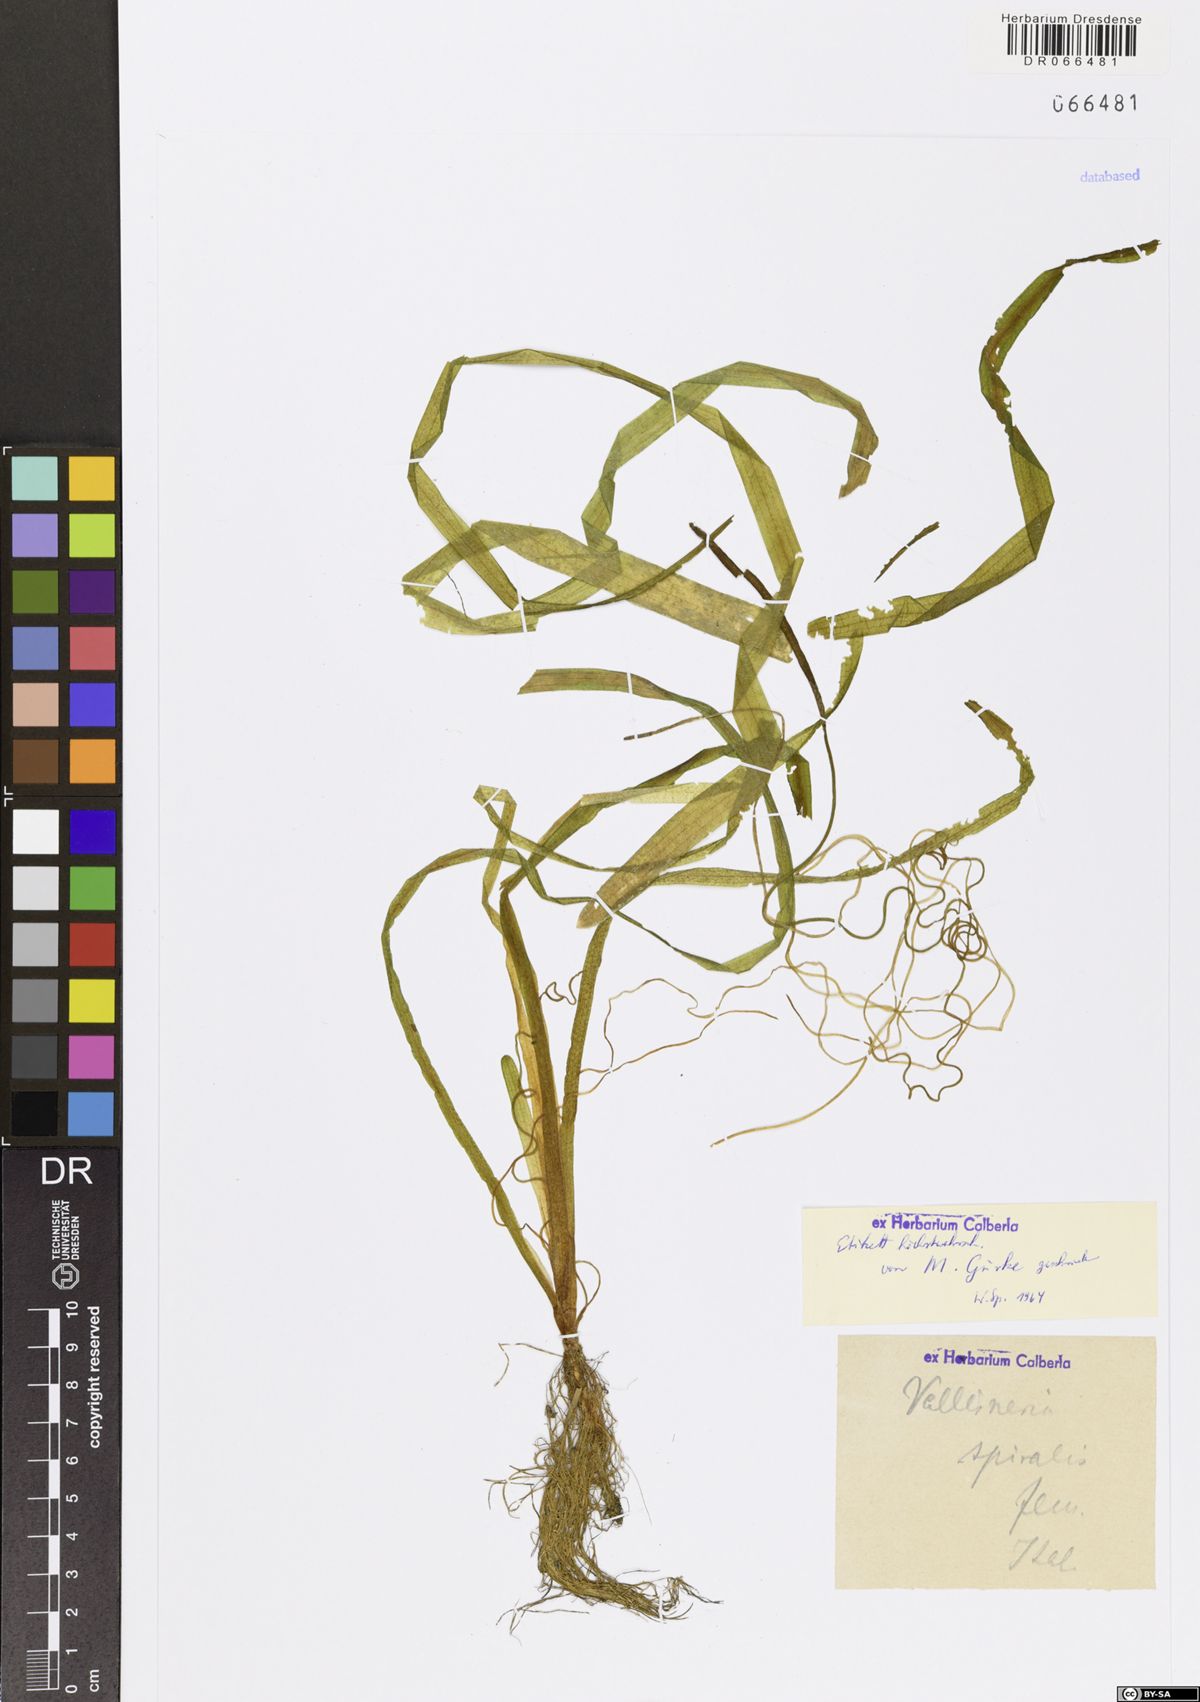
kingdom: Plantae
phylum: Tracheophyta
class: Liliopsida
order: Alismatales
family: Hydrocharitaceae
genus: Vallisneria
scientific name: Vallisneria spiralis
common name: Tapegrass
